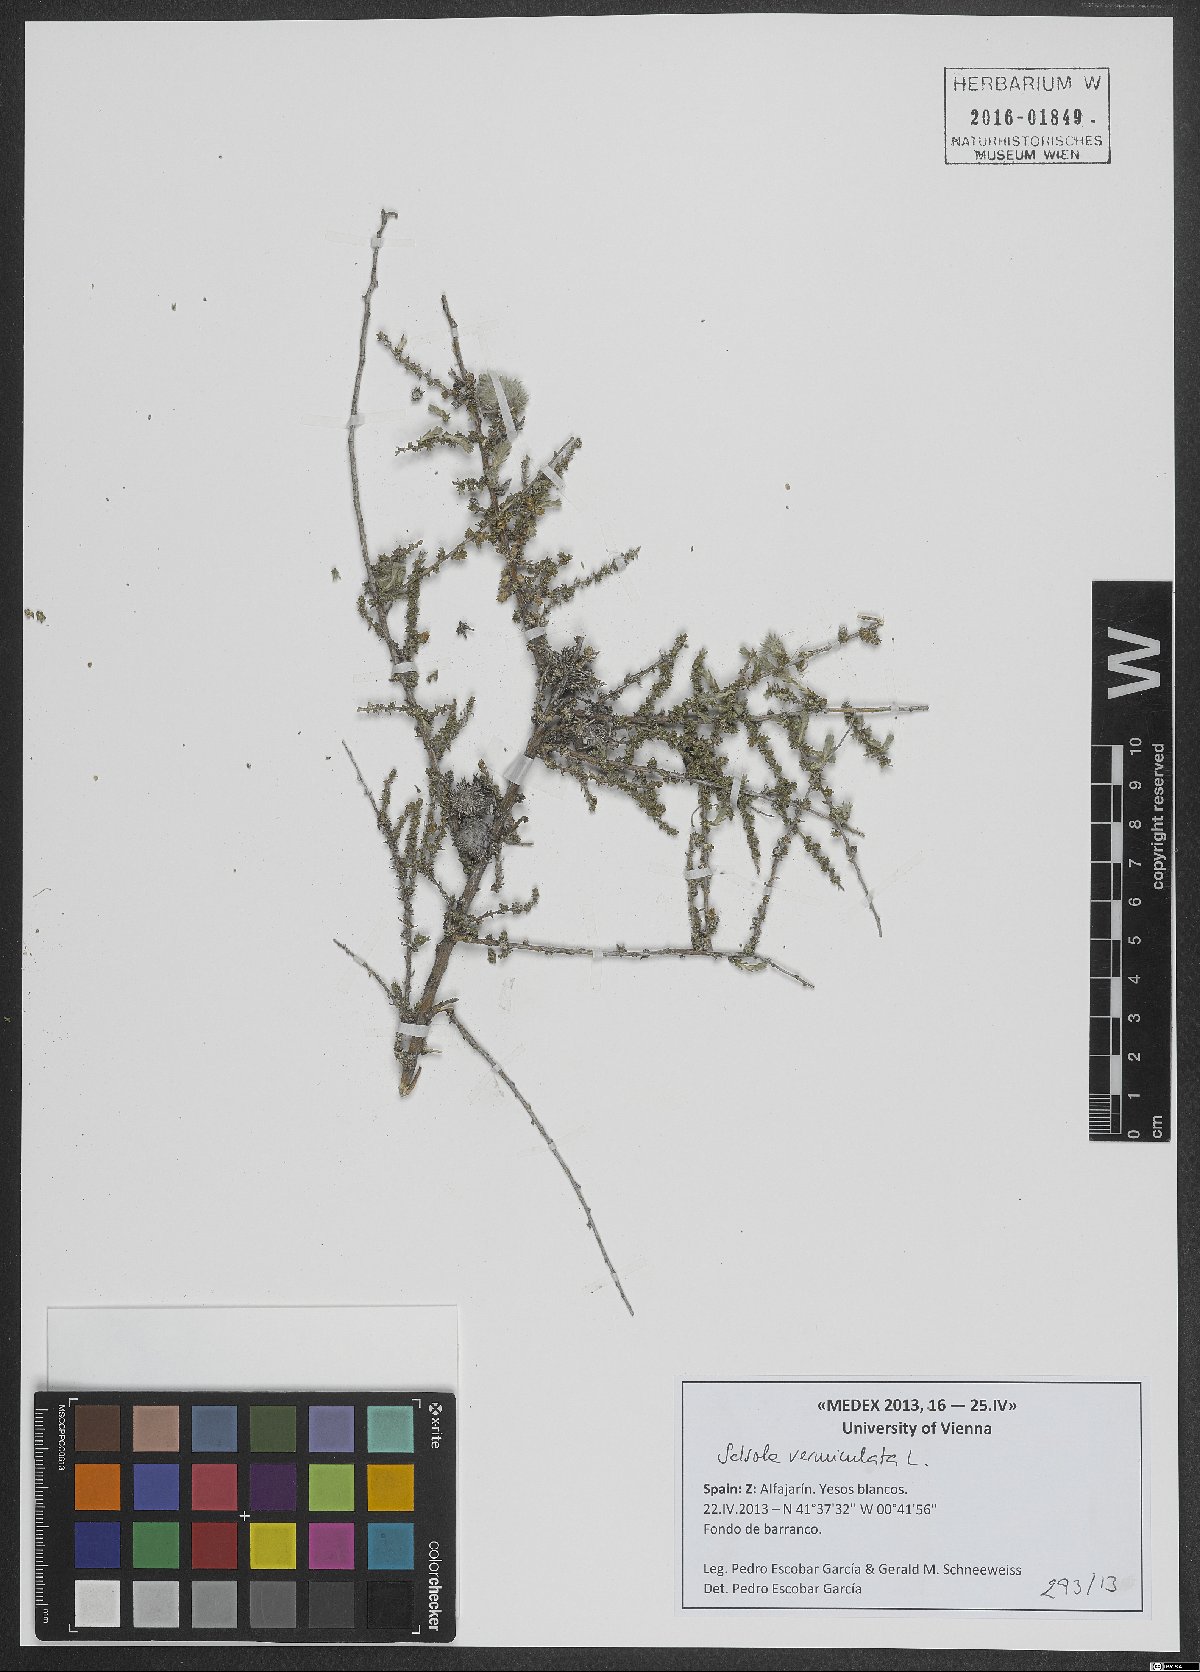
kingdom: Plantae
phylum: Tracheophyta
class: Magnoliopsida
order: Caryophyllales
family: Amaranthaceae
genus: Nitrosalsola
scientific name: Nitrosalsola vermiculata
